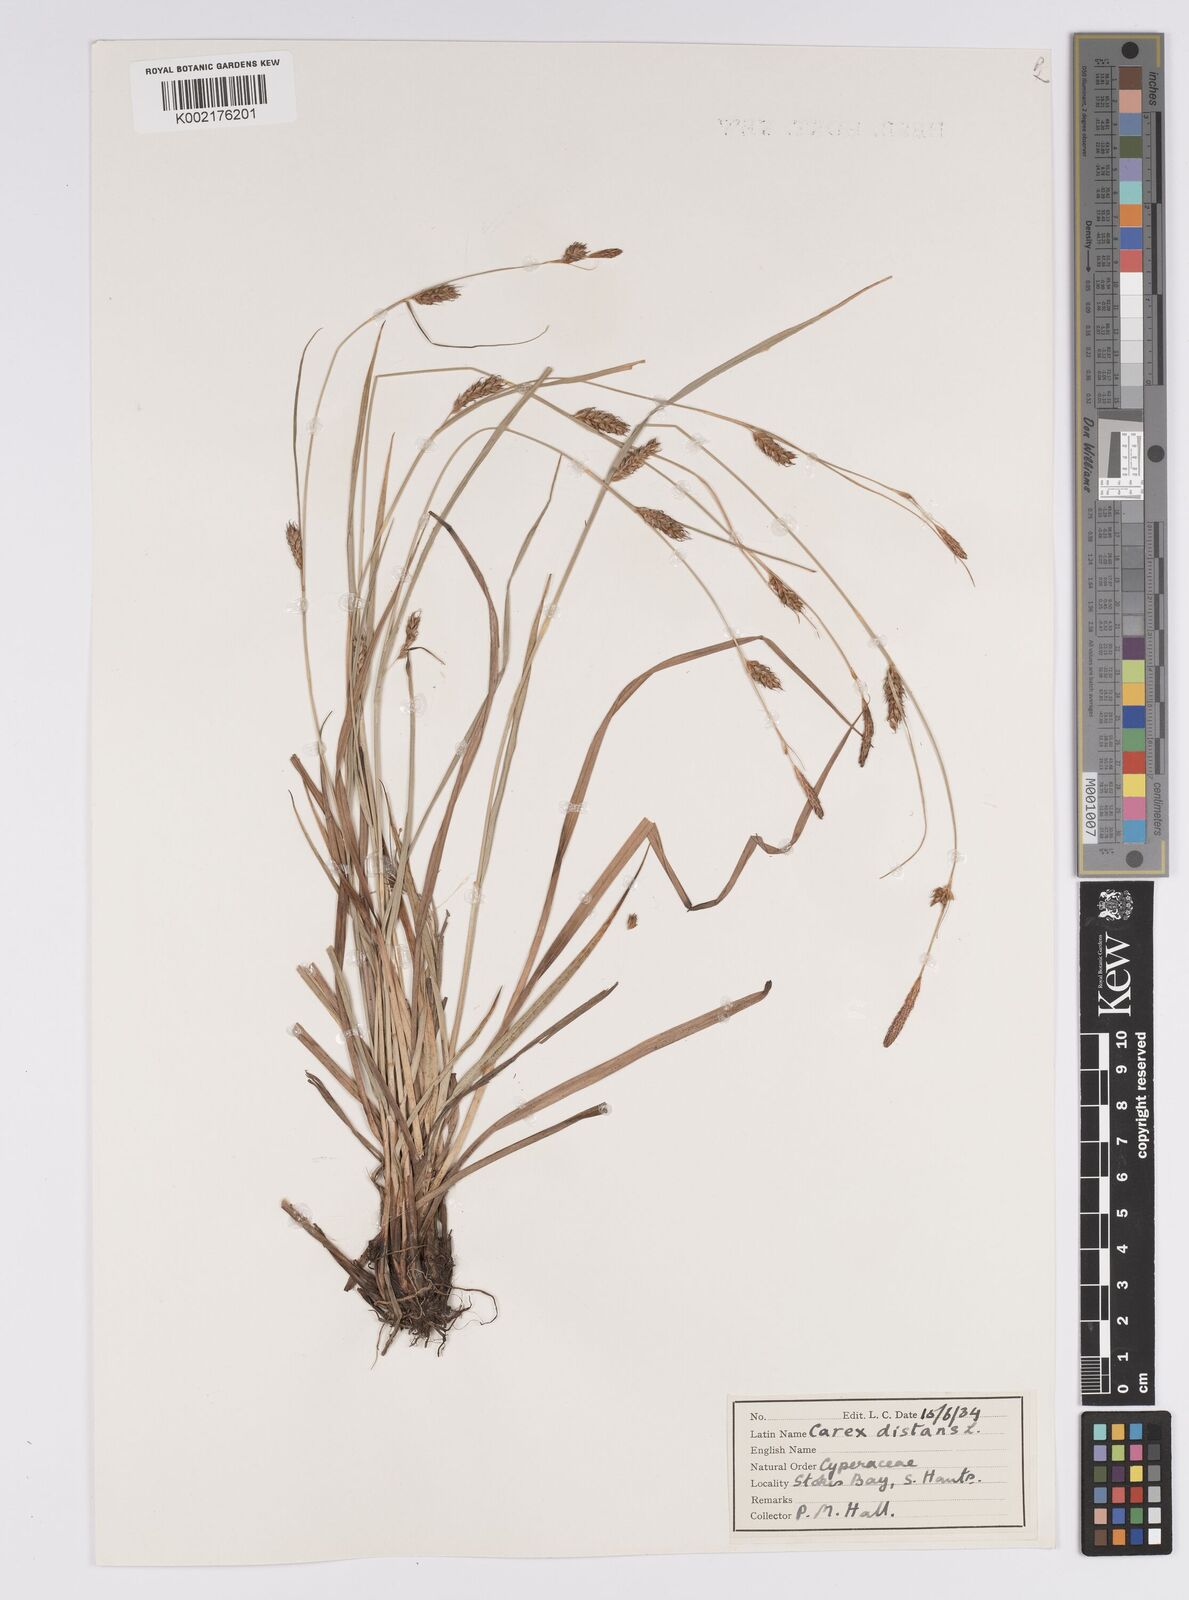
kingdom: Plantae
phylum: Tracheophyta
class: Liliopsida
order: Poales
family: Cyperaceae
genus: Carex
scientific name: Carex distans
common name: Distant sedge
